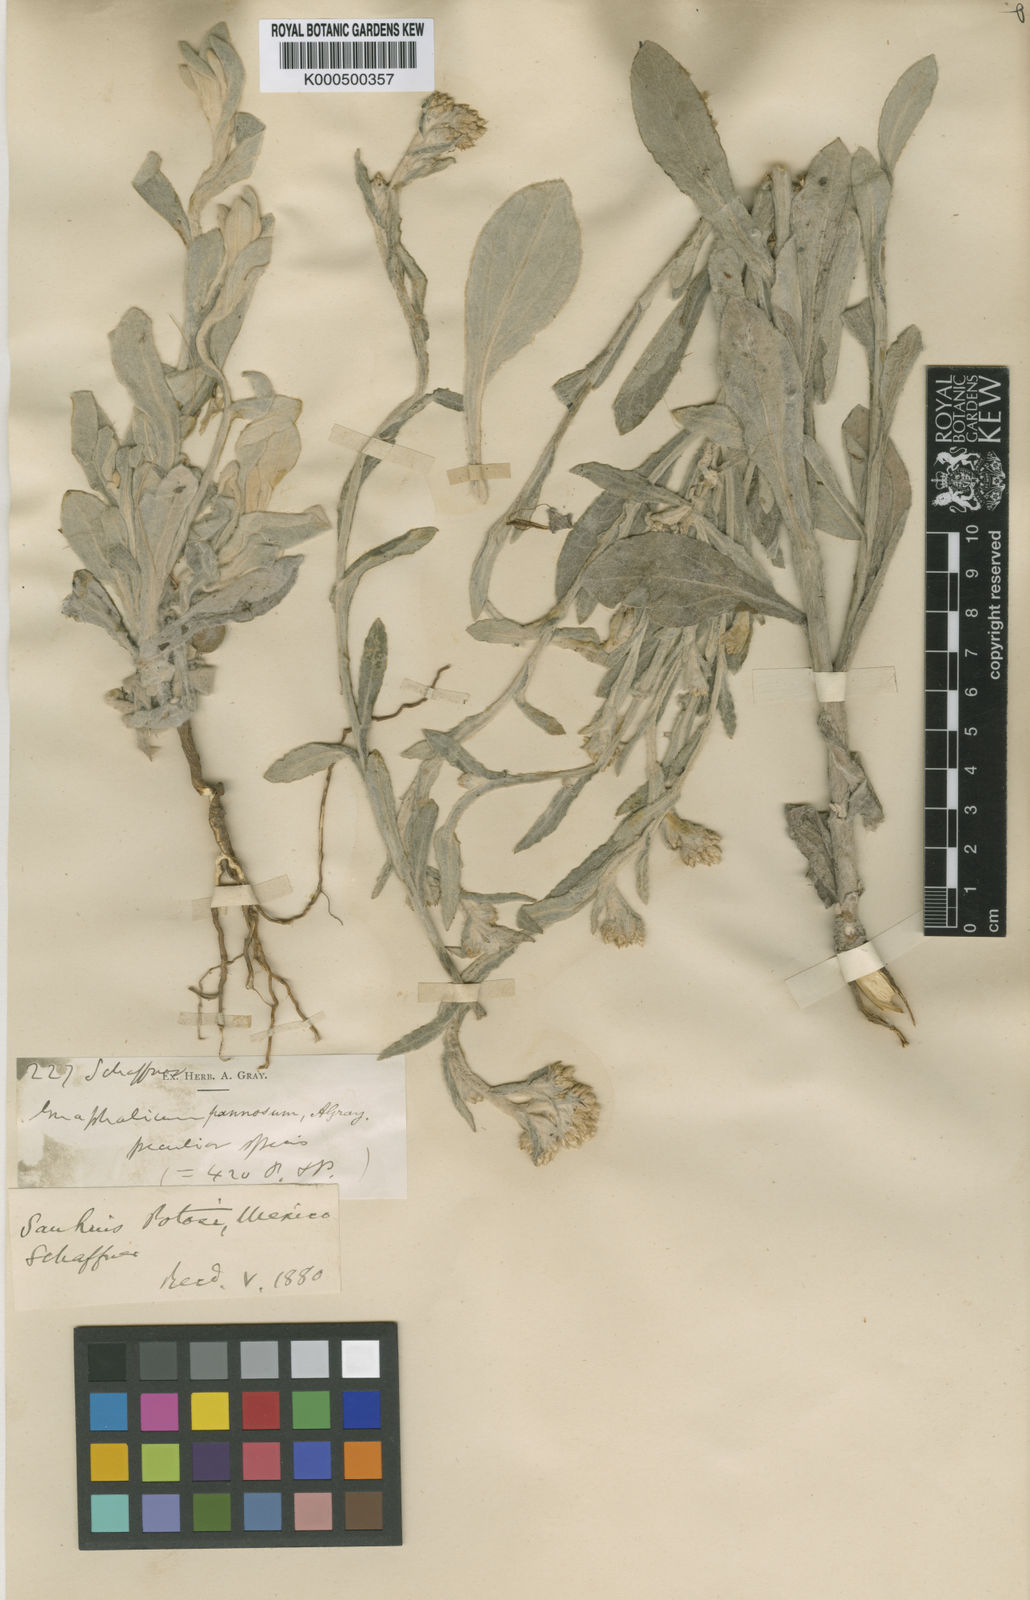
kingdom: Plantae
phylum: Tracheophyta
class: Magnoliopsida
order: Asterales
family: Asteraceae
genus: Pseudognaphalium
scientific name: Pseudognaphalium nubicola
